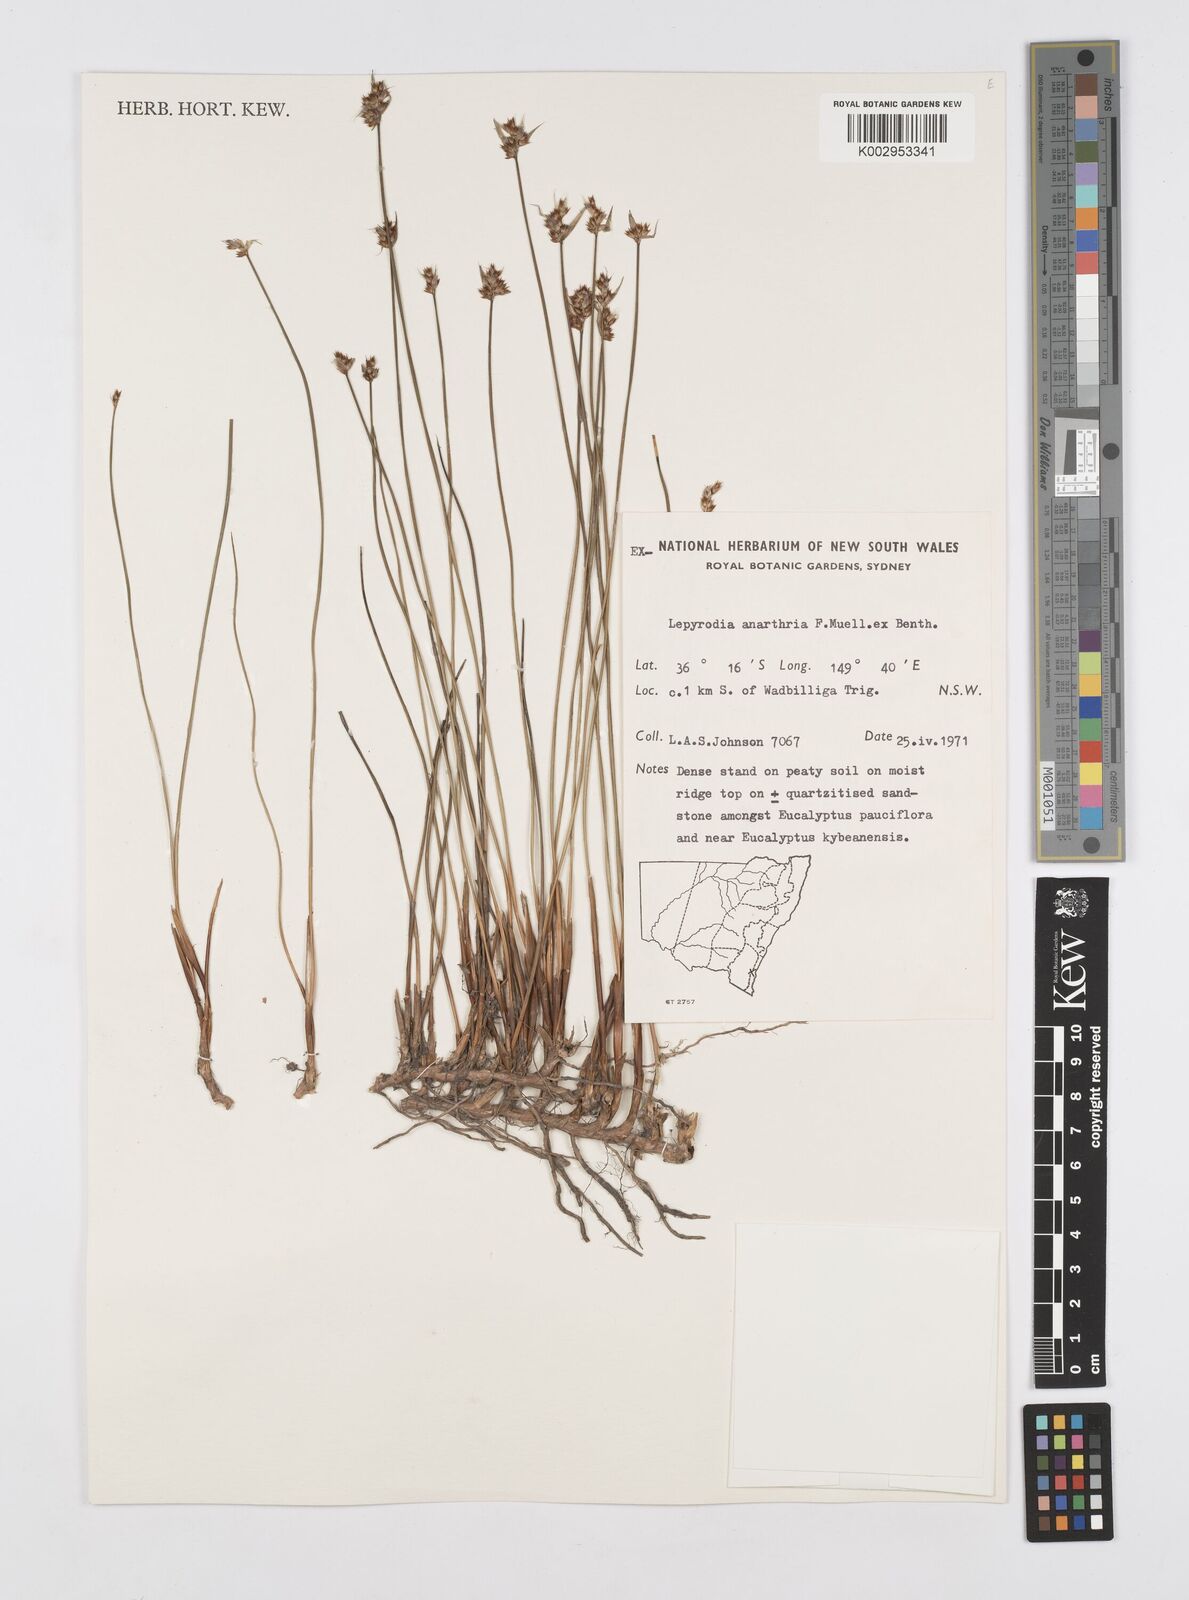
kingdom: Plantae
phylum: Tracheophyta
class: Liliopsida
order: Poales
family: Restionaceae
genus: Lepyrodia
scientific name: Lepyrodia anarthria
